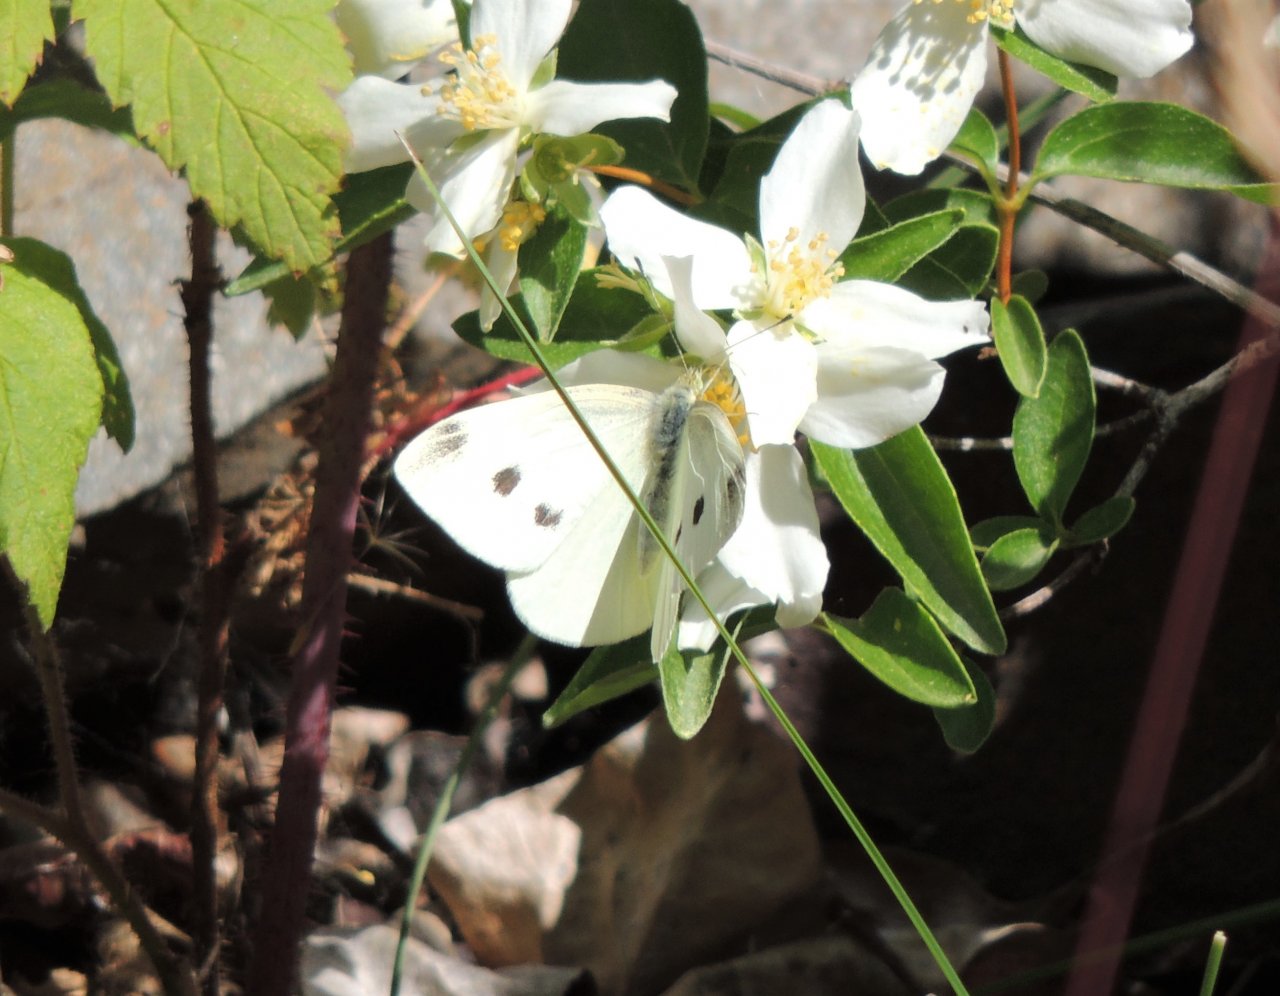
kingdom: Animalia
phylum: Arthropoda
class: Insecta
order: Lepidoptera
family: Pieridae
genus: Pieris
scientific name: Pieris rapae
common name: Cabbage White
